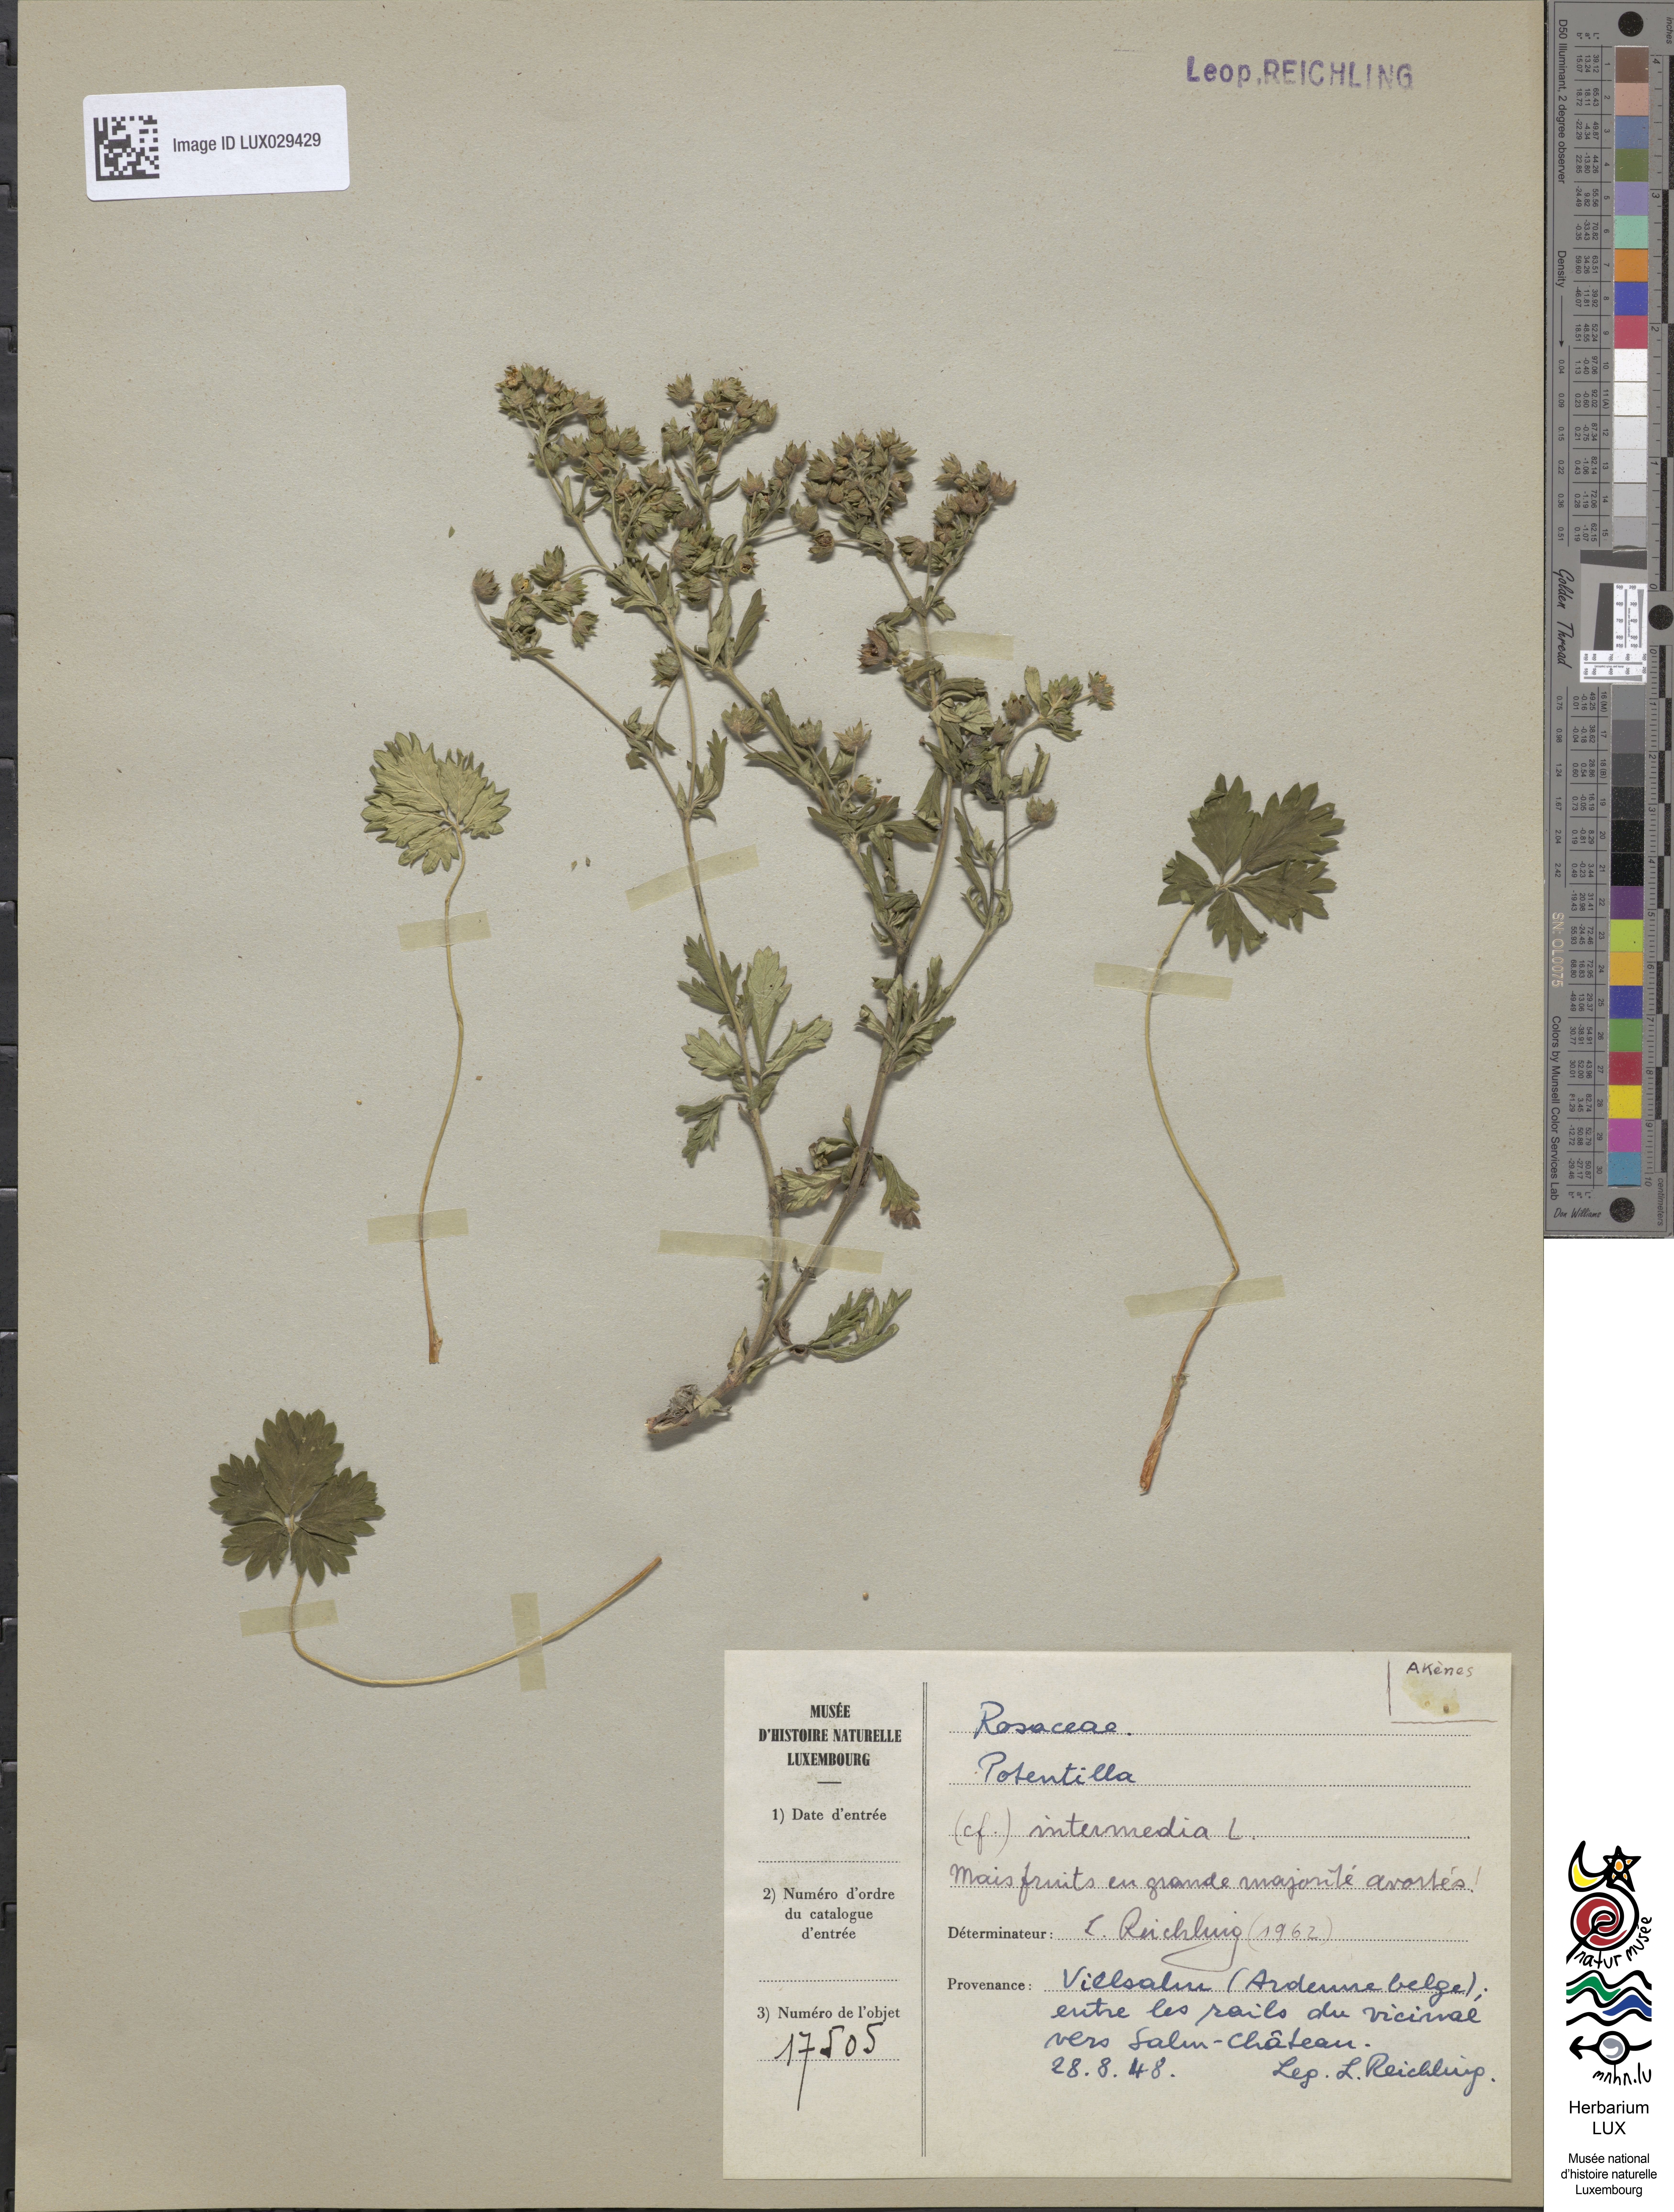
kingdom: Plantae
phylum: Tracheophyta
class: Magnoliopsida
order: Rosales
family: Rosaceae
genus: Potentilla
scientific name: Potentilla intermedia
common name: Downy cinquefoil
